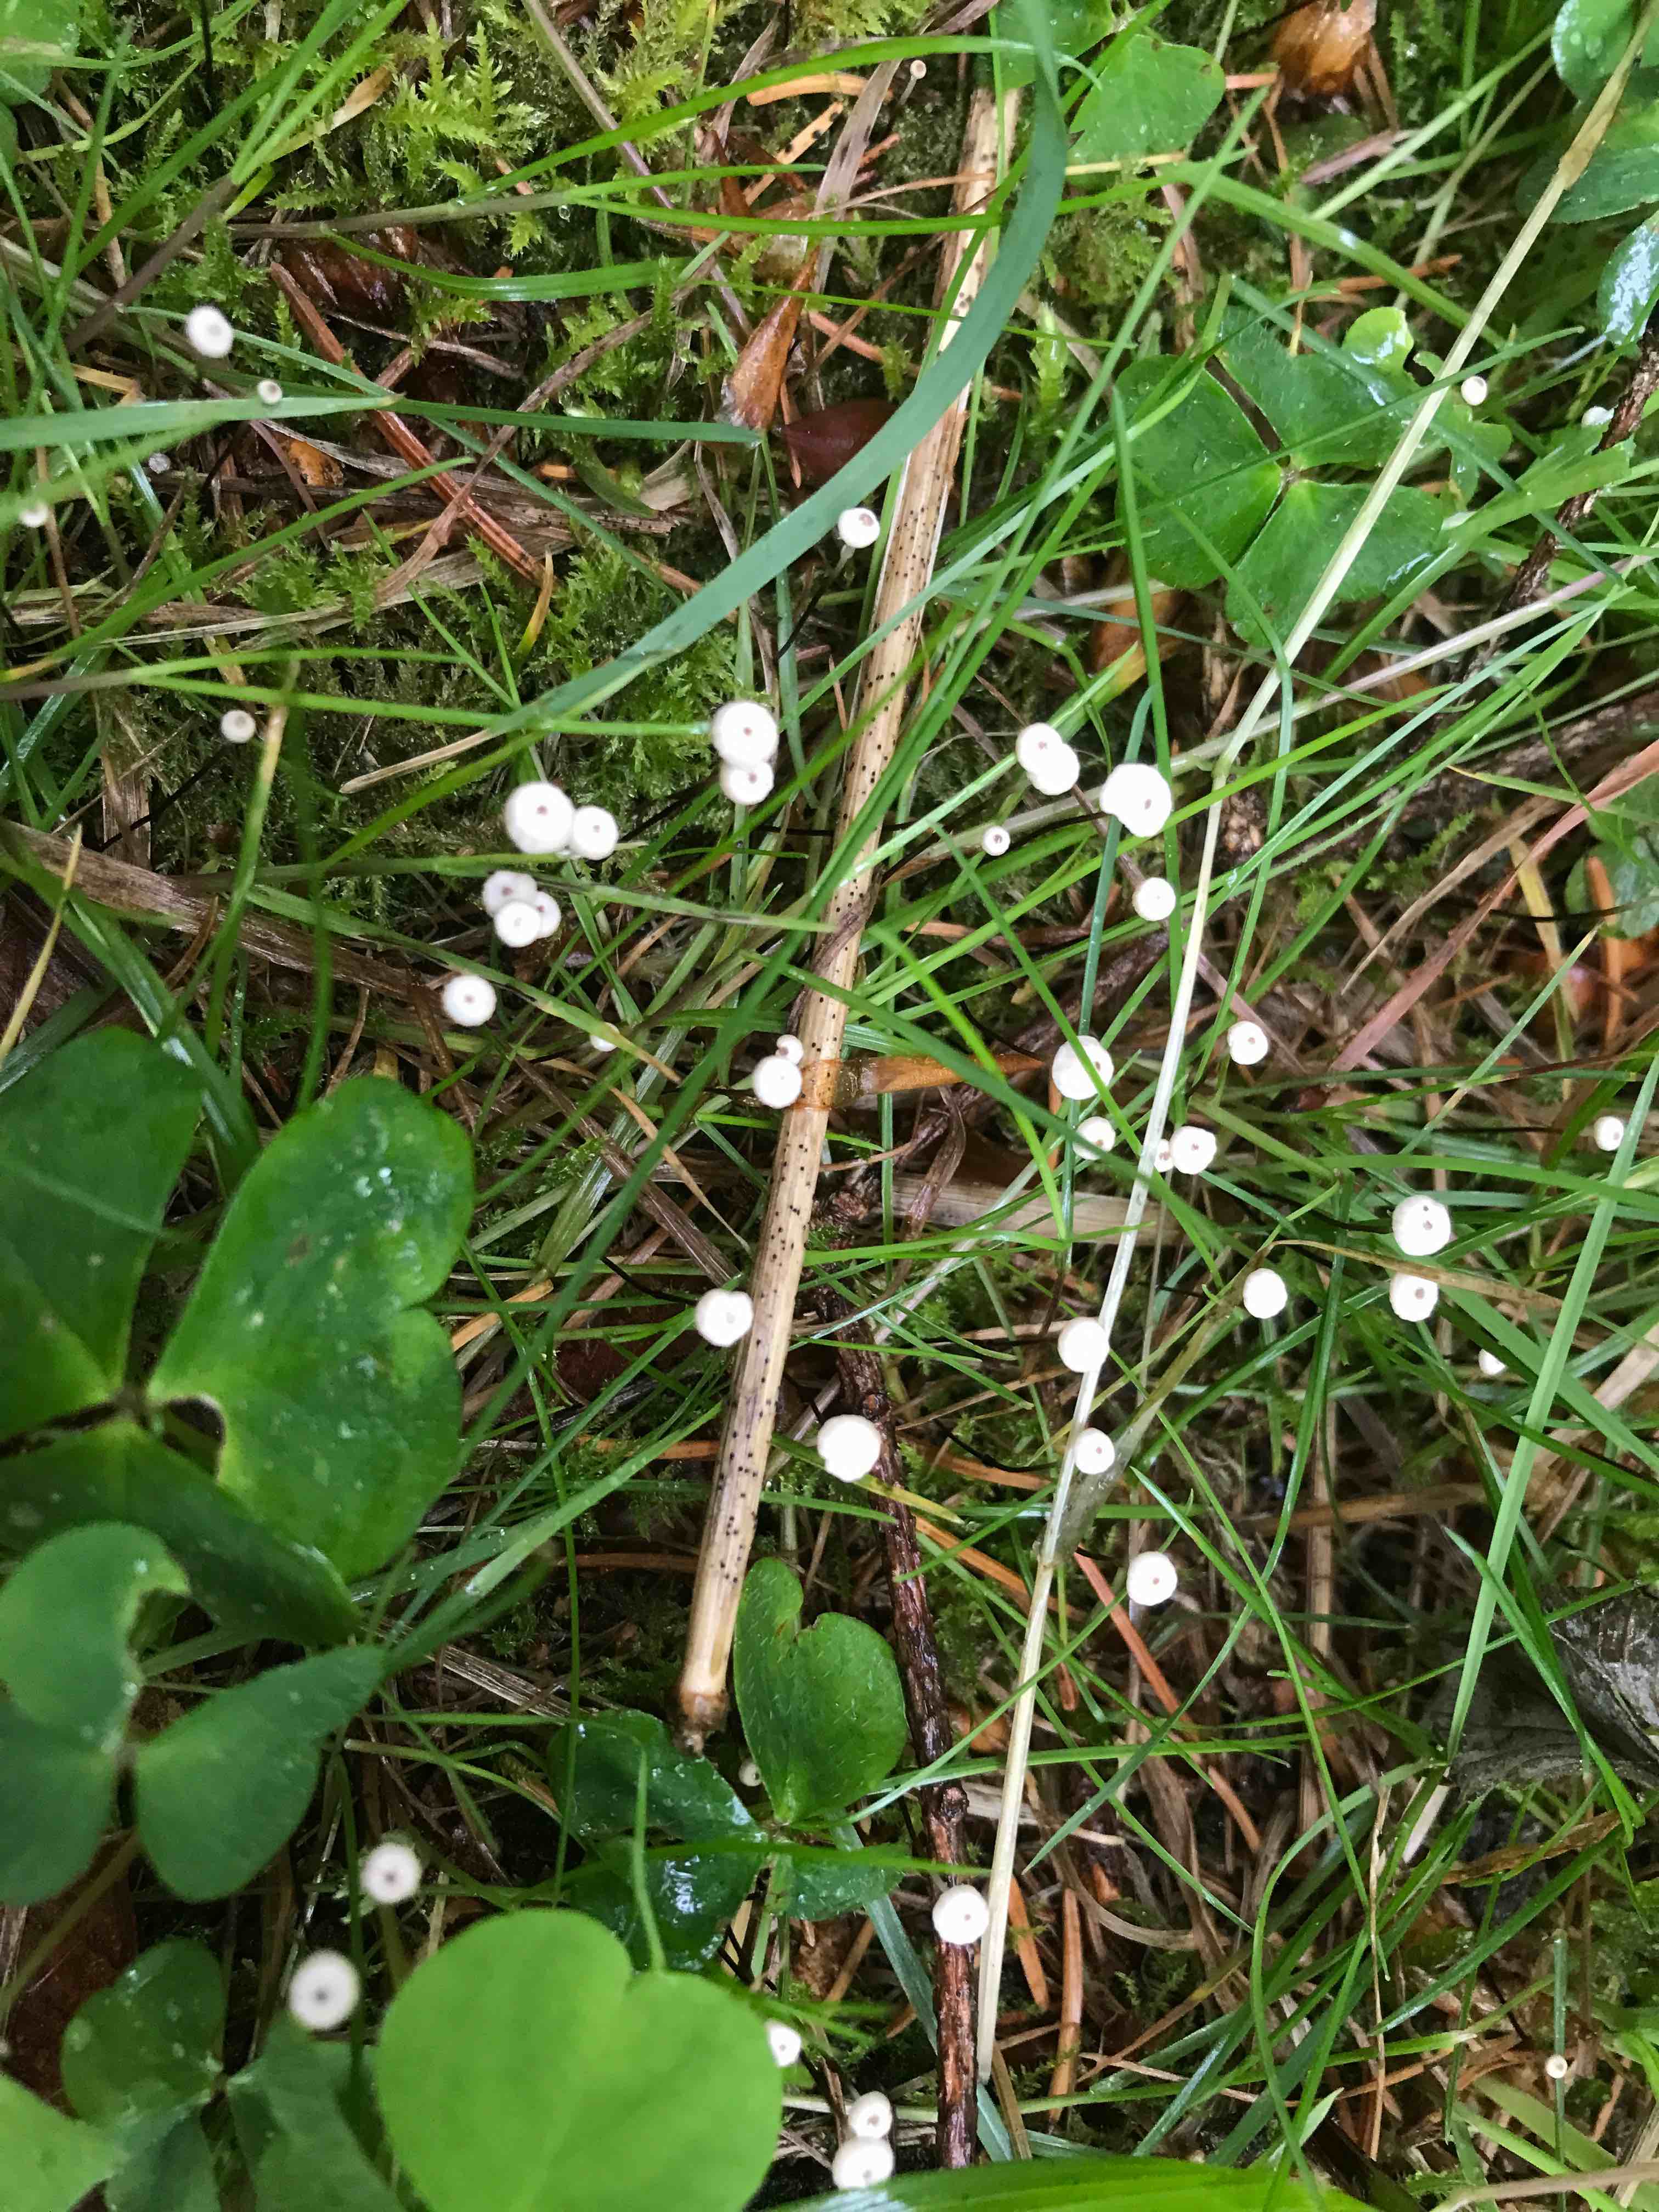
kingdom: Fungi
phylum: Basidiomycota
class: Agaricomycetes
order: Agaricales
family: Marasmiaceae
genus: Marasmius
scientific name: Marasmius wettsteinii
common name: Wettsteins bruskhat
